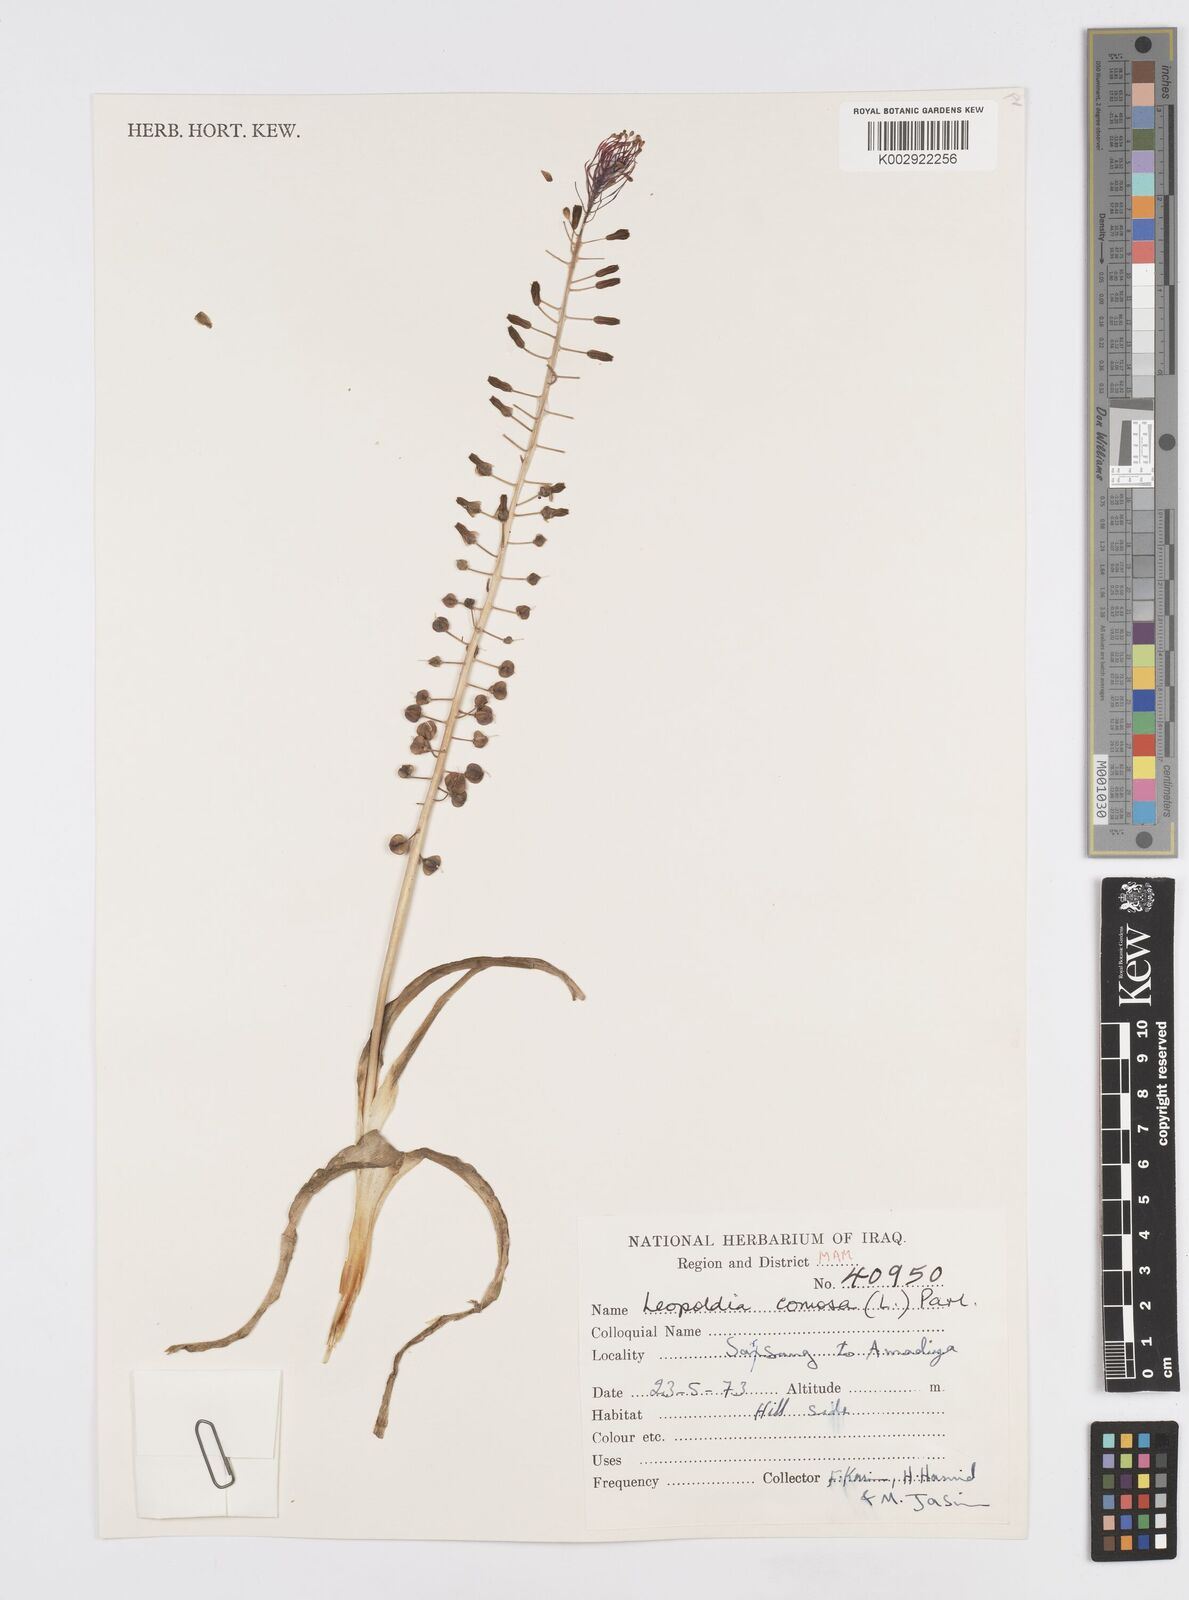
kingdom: Plantae
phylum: Tracheophyta
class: Liliopsida
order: Asparagales
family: Asparagaceae
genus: Muscari
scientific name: Muscari comosum
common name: Tassel hyacinth
